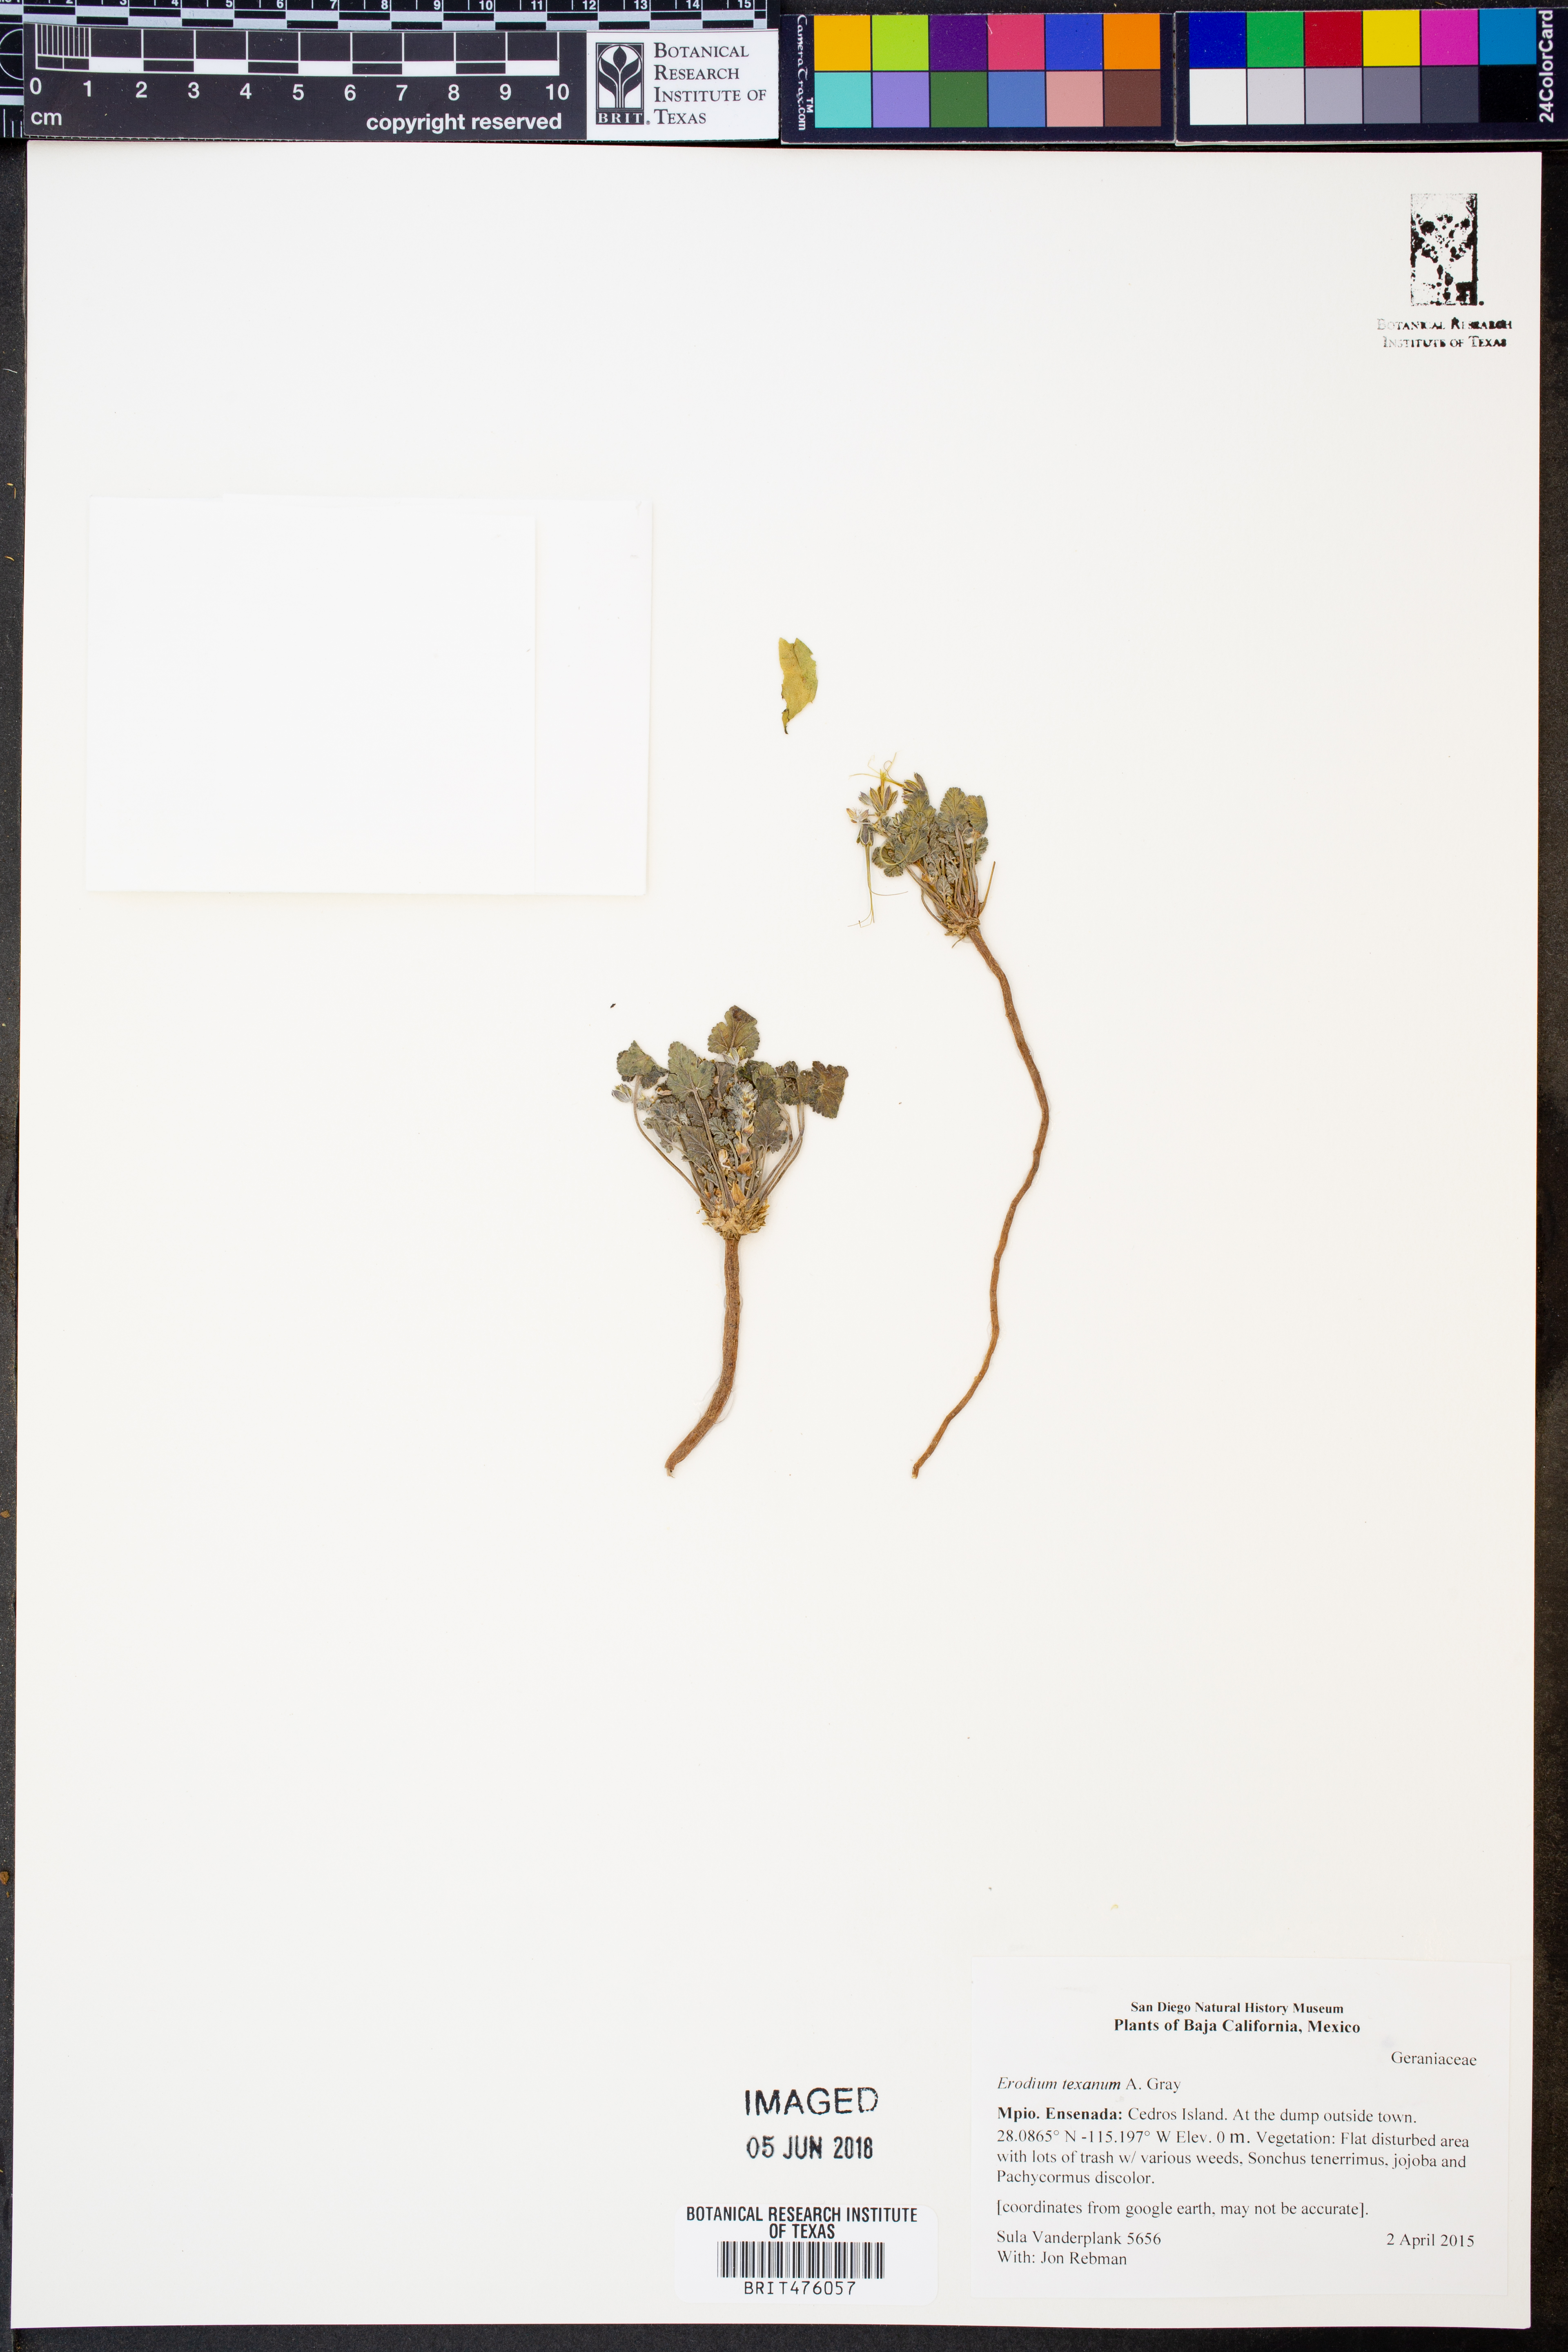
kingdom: Plantae
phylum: Tracheophyta
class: Magnoliopsida
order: Geraniales
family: Geraniaceae
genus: Erodium
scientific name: Erodium texanum
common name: Texas stork's-bill
